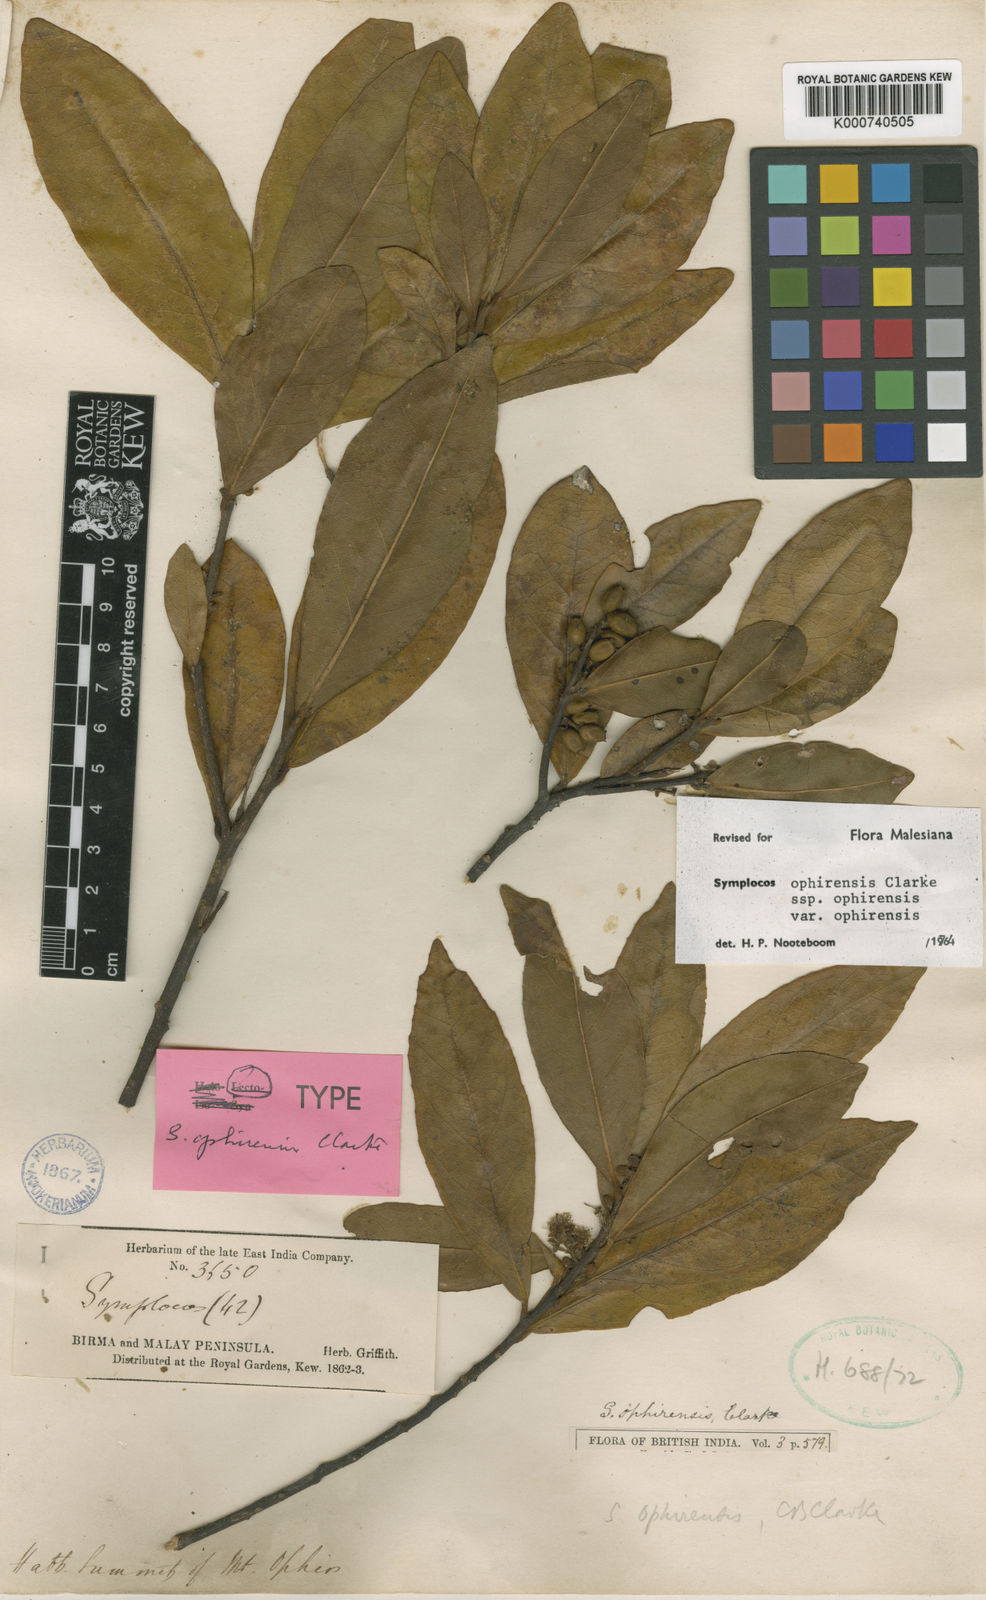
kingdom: Plantae
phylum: Tracheophyta
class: Magnoliopsida
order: Ericales
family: Symplocaceae
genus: Symplocos
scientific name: Symplocos ophirensis
